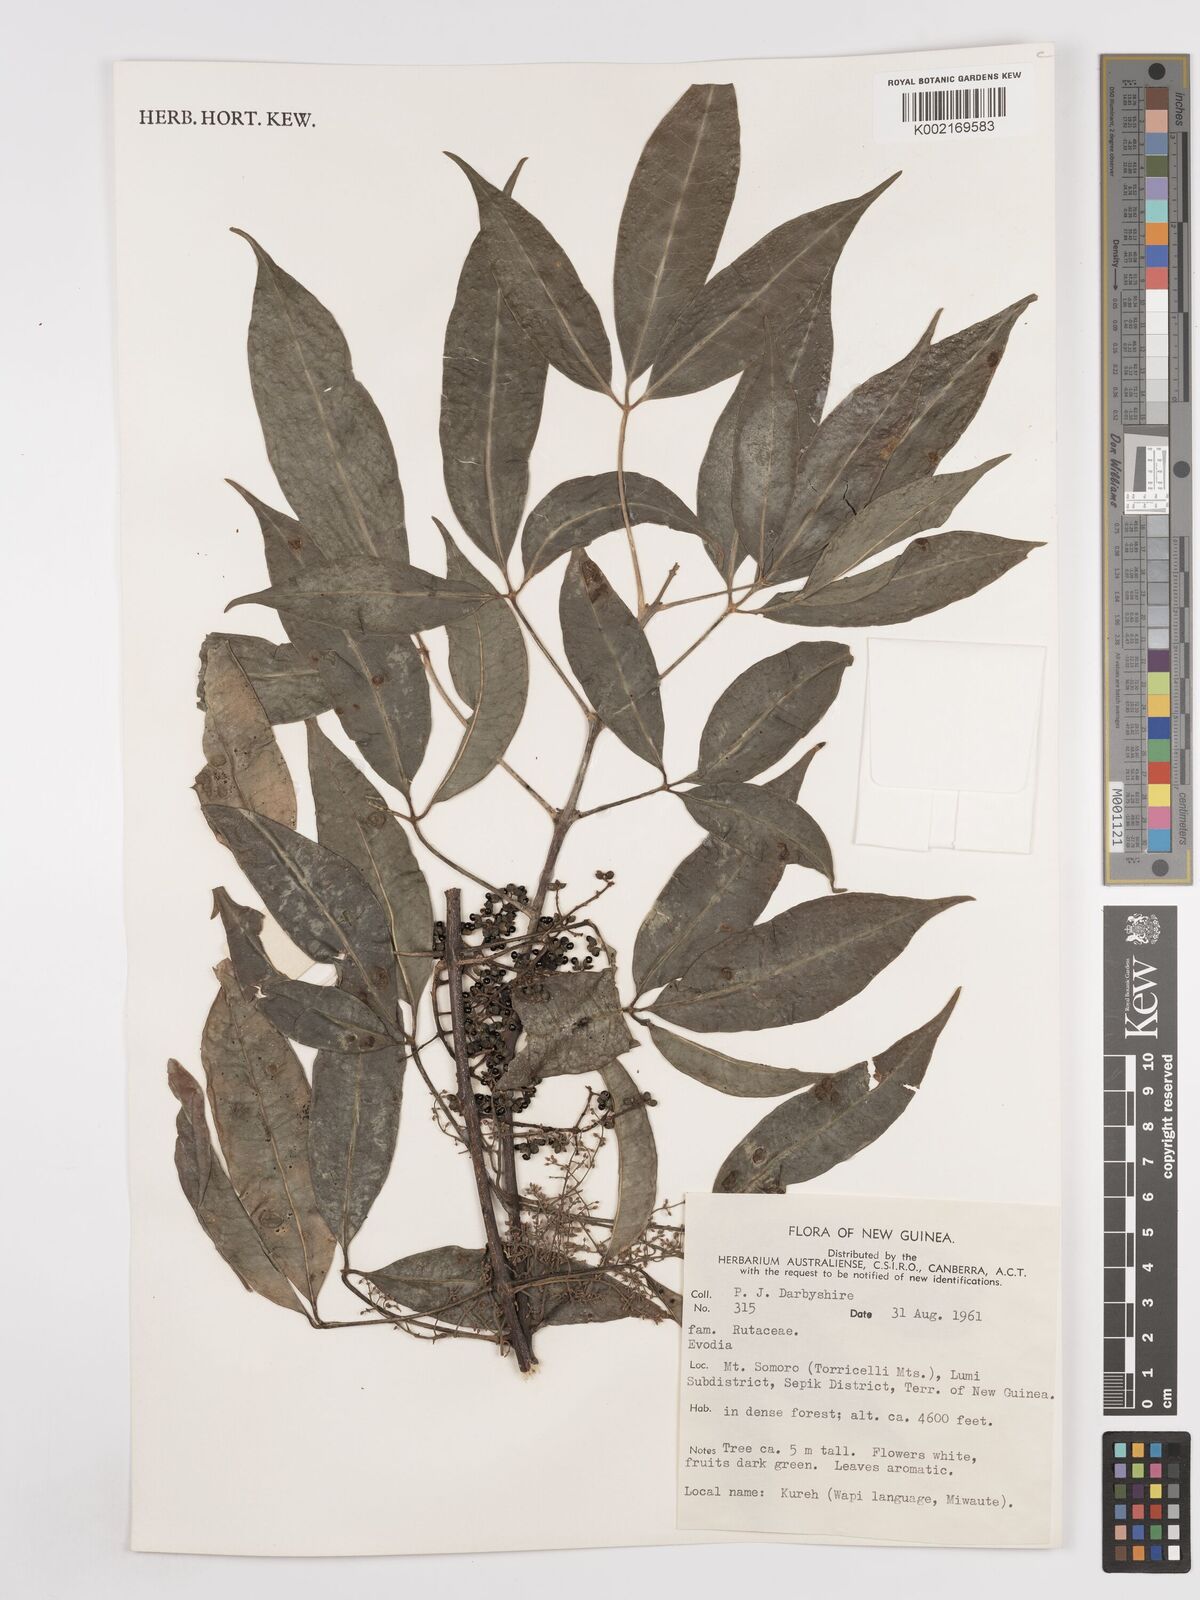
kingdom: Plantae
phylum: Tracheophyta
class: Magnoliopsida
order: Sapindales
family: Rutaceae
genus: Euodia
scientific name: Euodia
